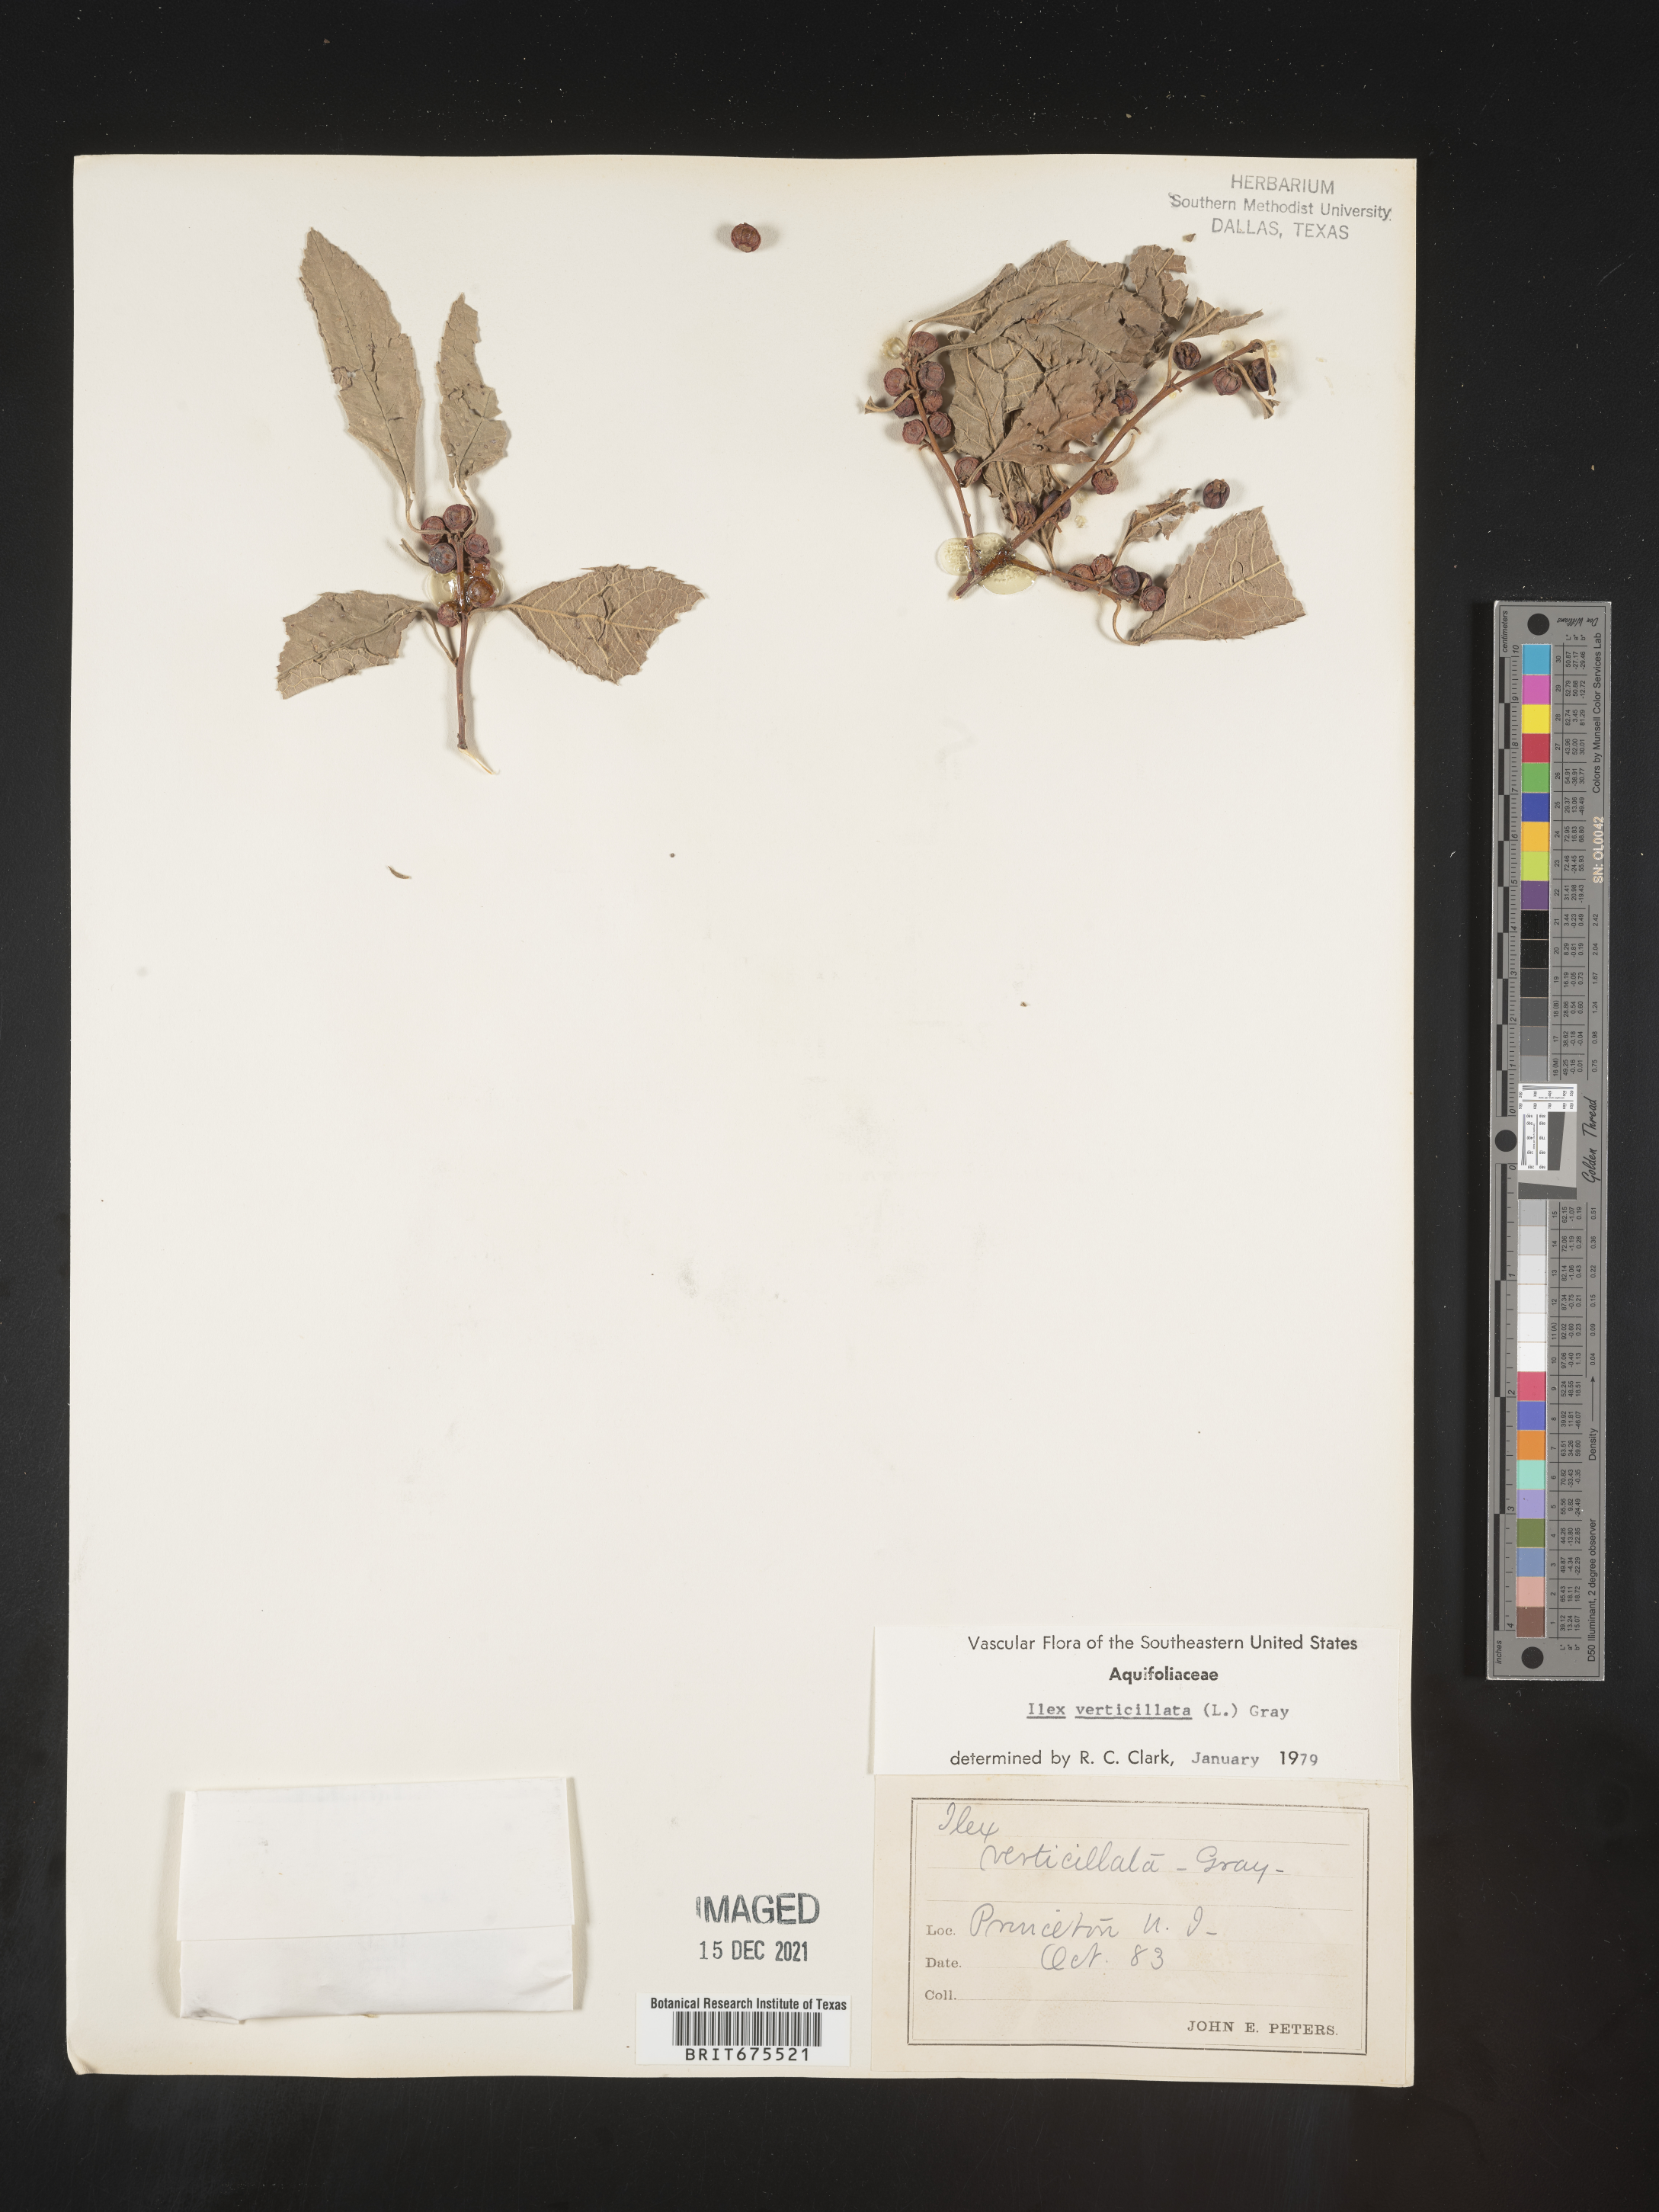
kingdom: Plantae
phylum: Tracheophyta
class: Magnoliopsida
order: Aquifoliales
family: Aquifoliaceae
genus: Ilex
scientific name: Ilex verticillata
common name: Virginia winterberry
